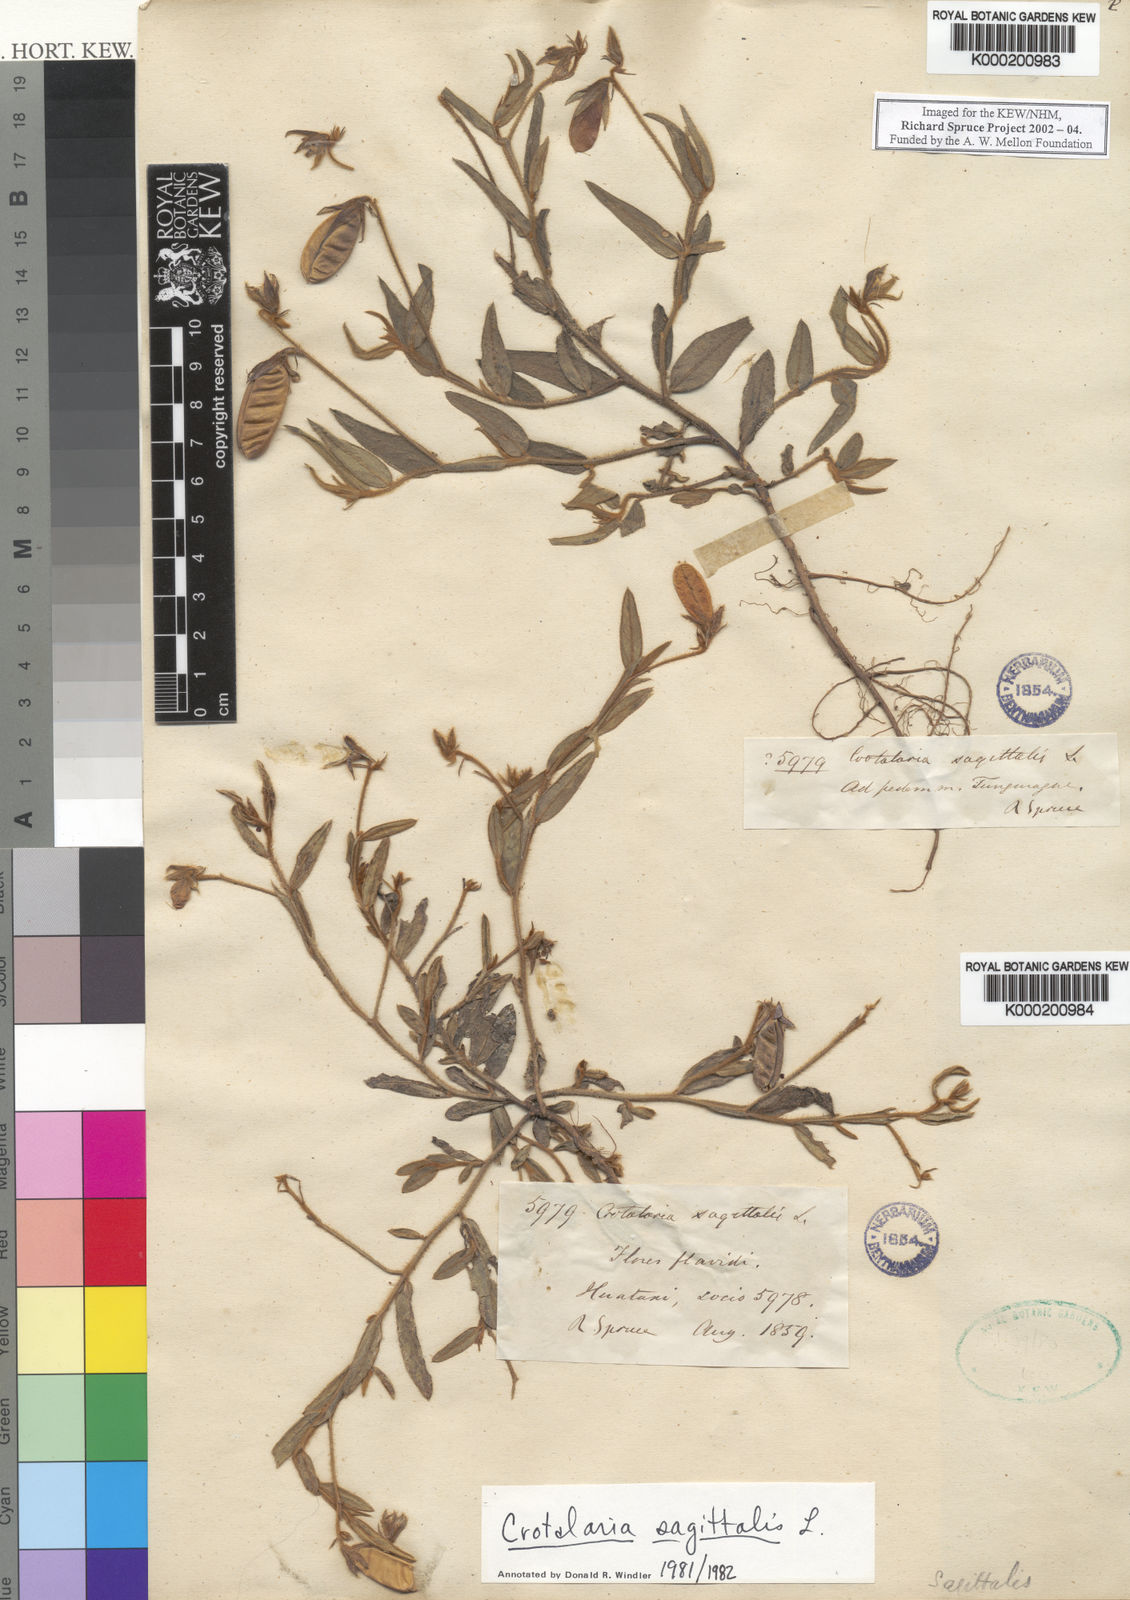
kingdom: Plantae
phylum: Tracheophyta
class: Magnoliopsida
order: Fabales
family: Fabaceae
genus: Crotalaria
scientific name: Crotalaria sagittalis
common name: Arrowhead rattlebox
